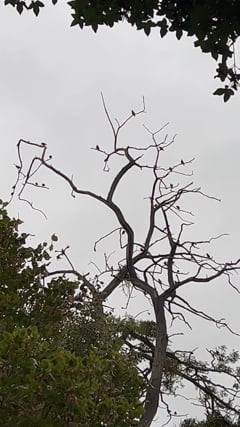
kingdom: Animalia
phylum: Chordata
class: Aves
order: Passeriformes
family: Sturnidae
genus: Sturnus
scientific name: Sturnus vulgaris
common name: Common starling
